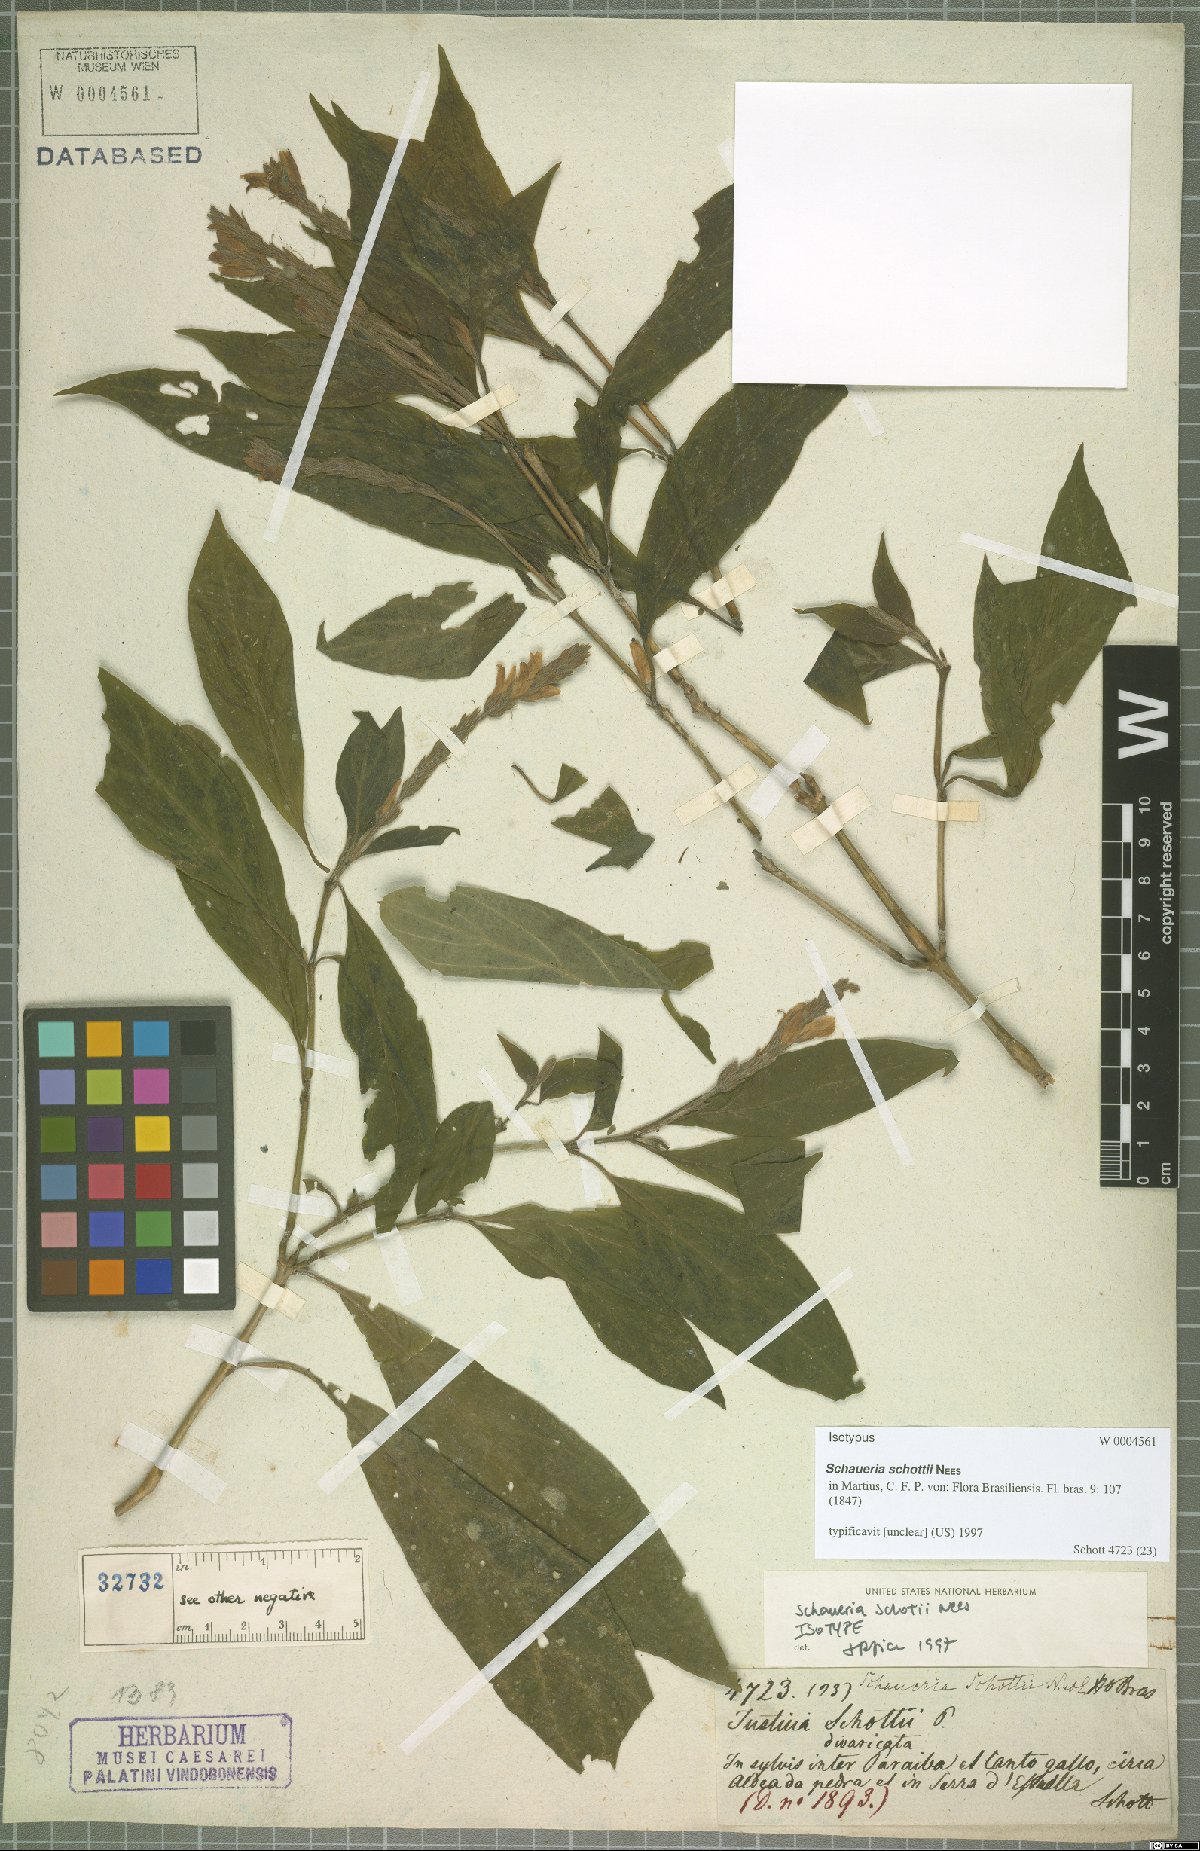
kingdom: Plantae
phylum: Tracheophyta
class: Magnoliopsida
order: Lamiales
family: Acanthaceae
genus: Schaueria
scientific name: Schaueria spicata
